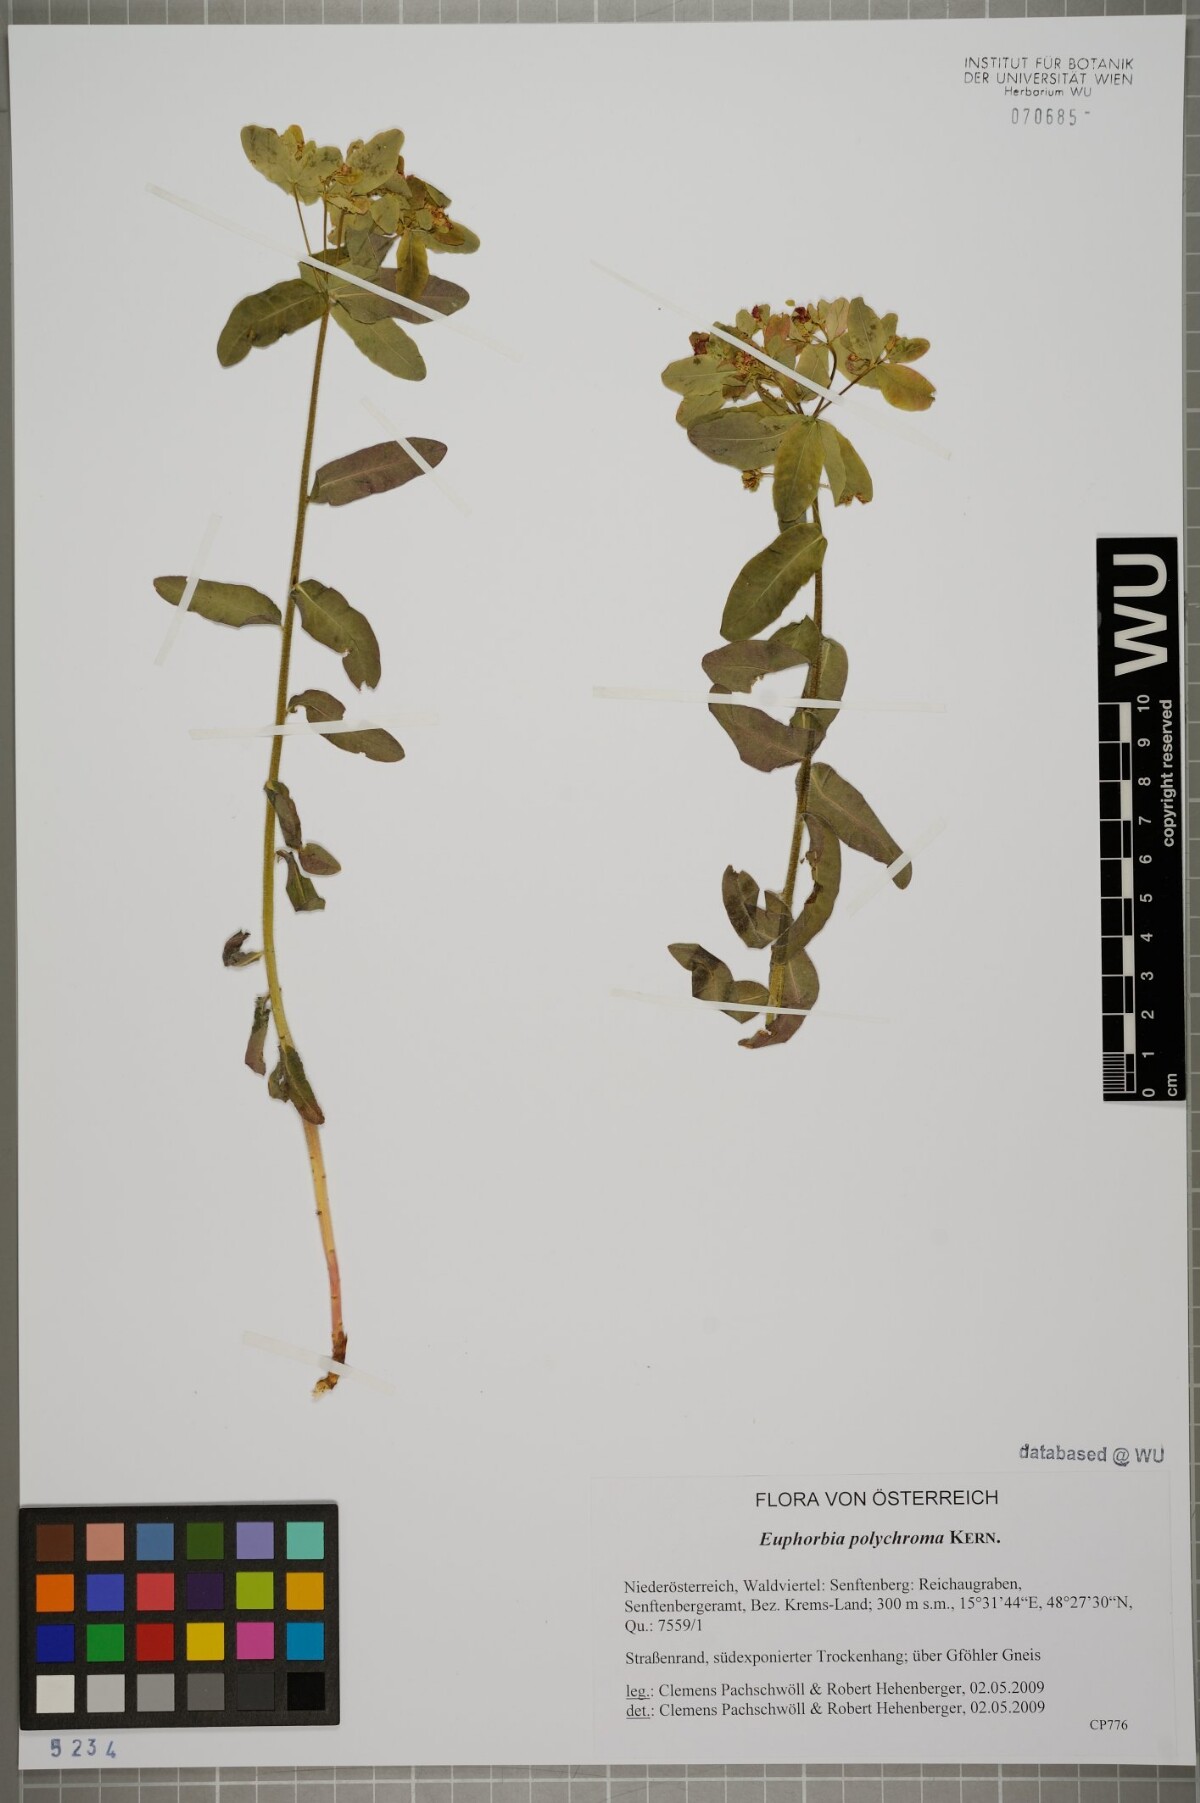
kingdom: Plantae
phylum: Tracheophyta
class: Magnoliopsida
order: Malpighiales
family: Euphorbiaceae
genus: Euphorbia
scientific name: Euphorbia epithymoides
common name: Cushion spurge
